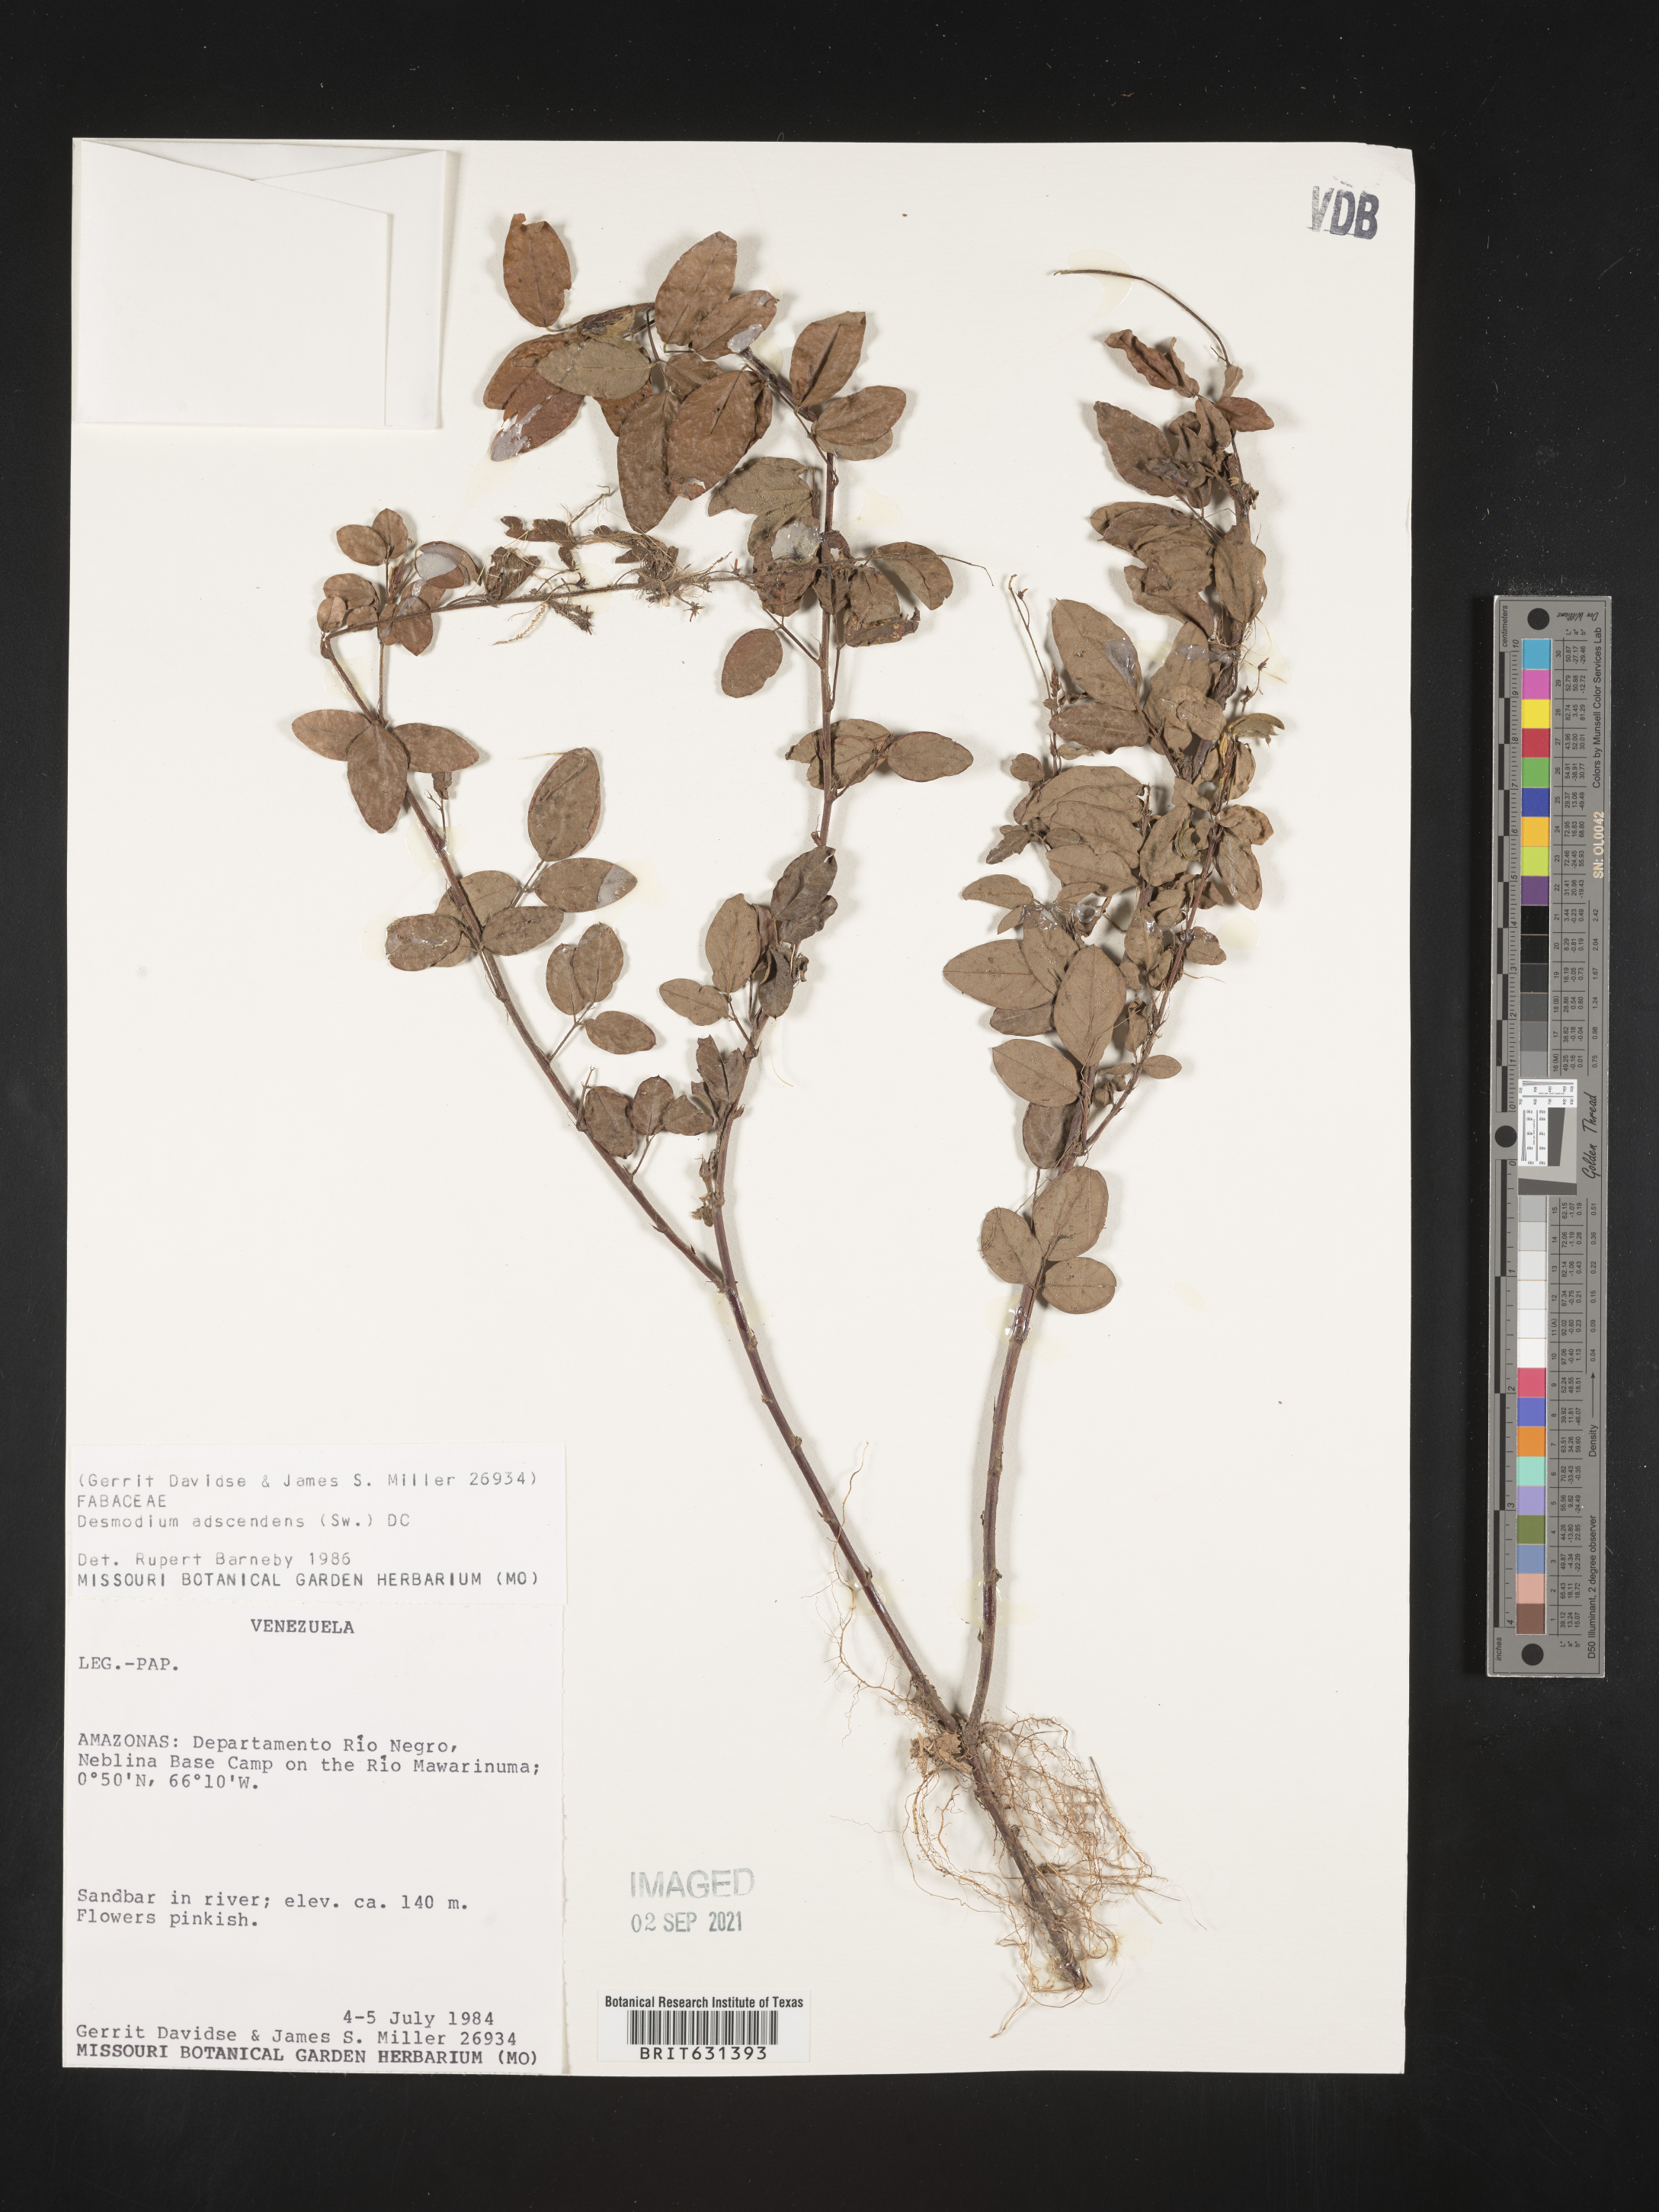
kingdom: Plantae
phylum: Tracheophyta
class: Magnoliopsida
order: Fabales
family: Fabaceae
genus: Grona
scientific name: Grona adscendens
